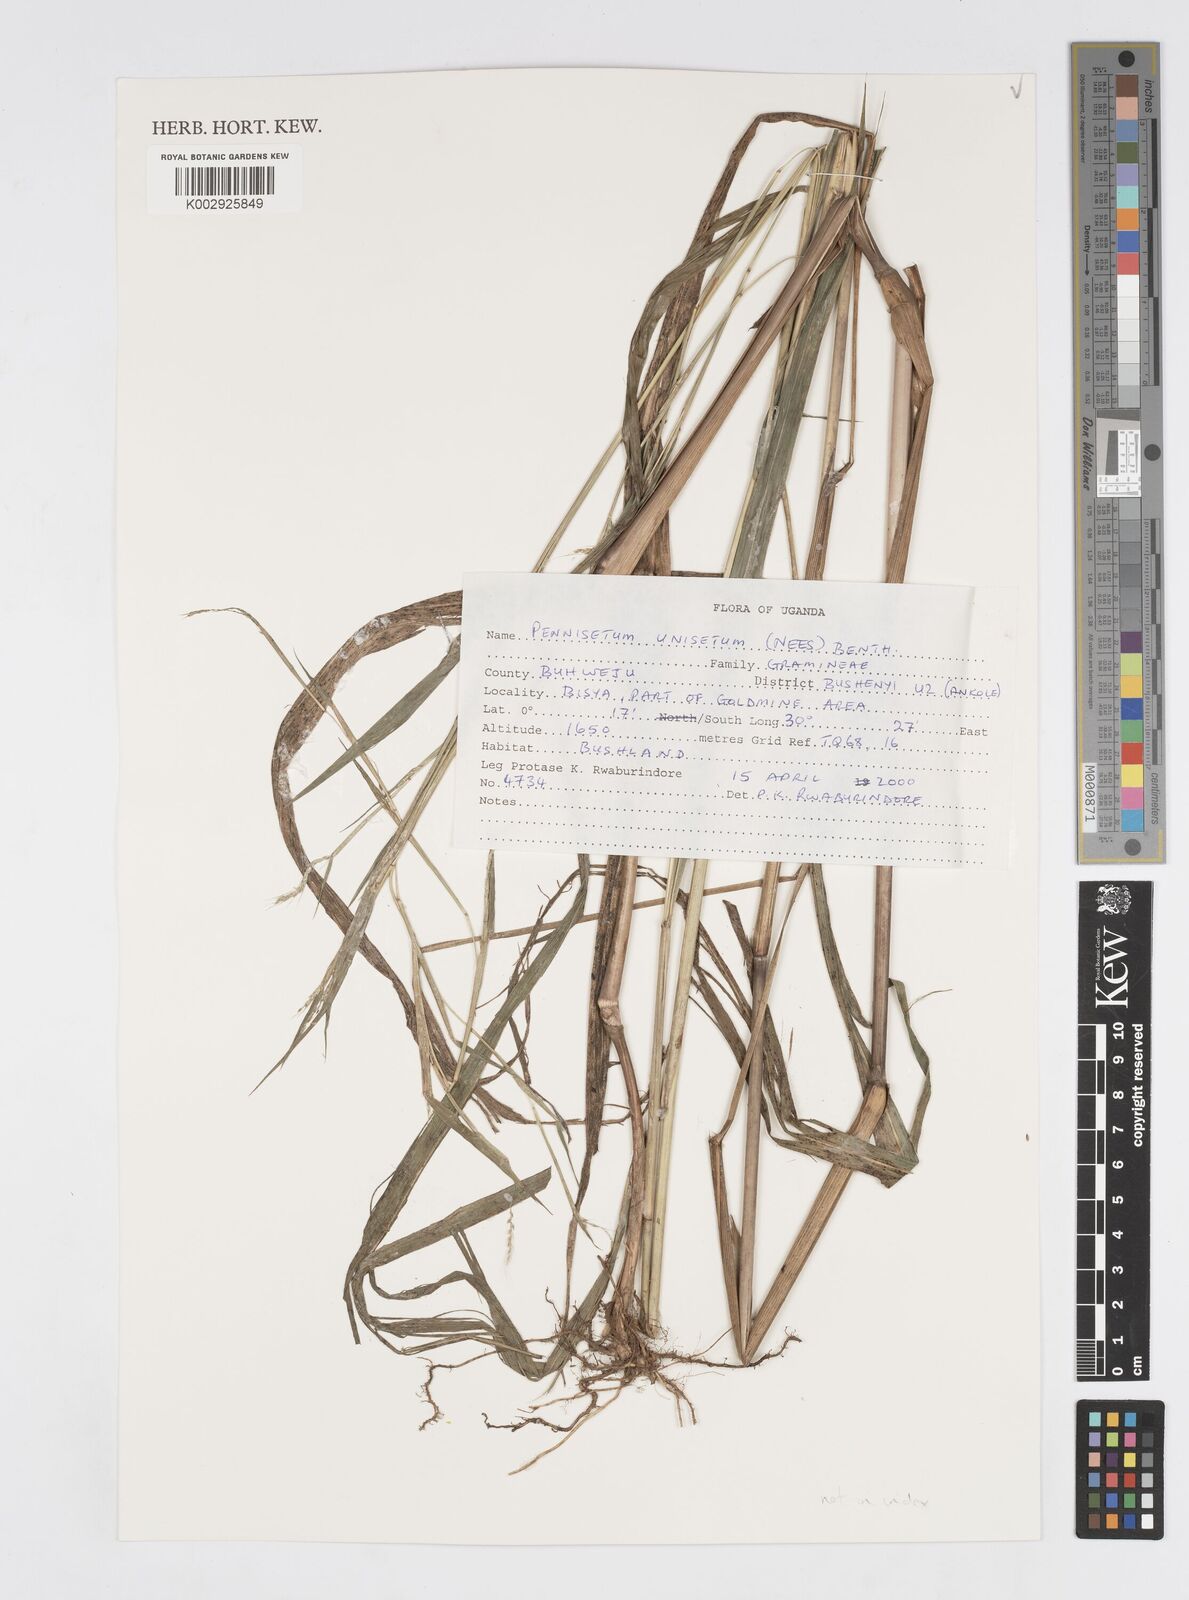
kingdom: Plantae
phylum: Tracheophyta
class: Liliopsida
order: Poales
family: Poaceae
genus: Cenchrus
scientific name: Cenchrus unisetus
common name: Natal grass
